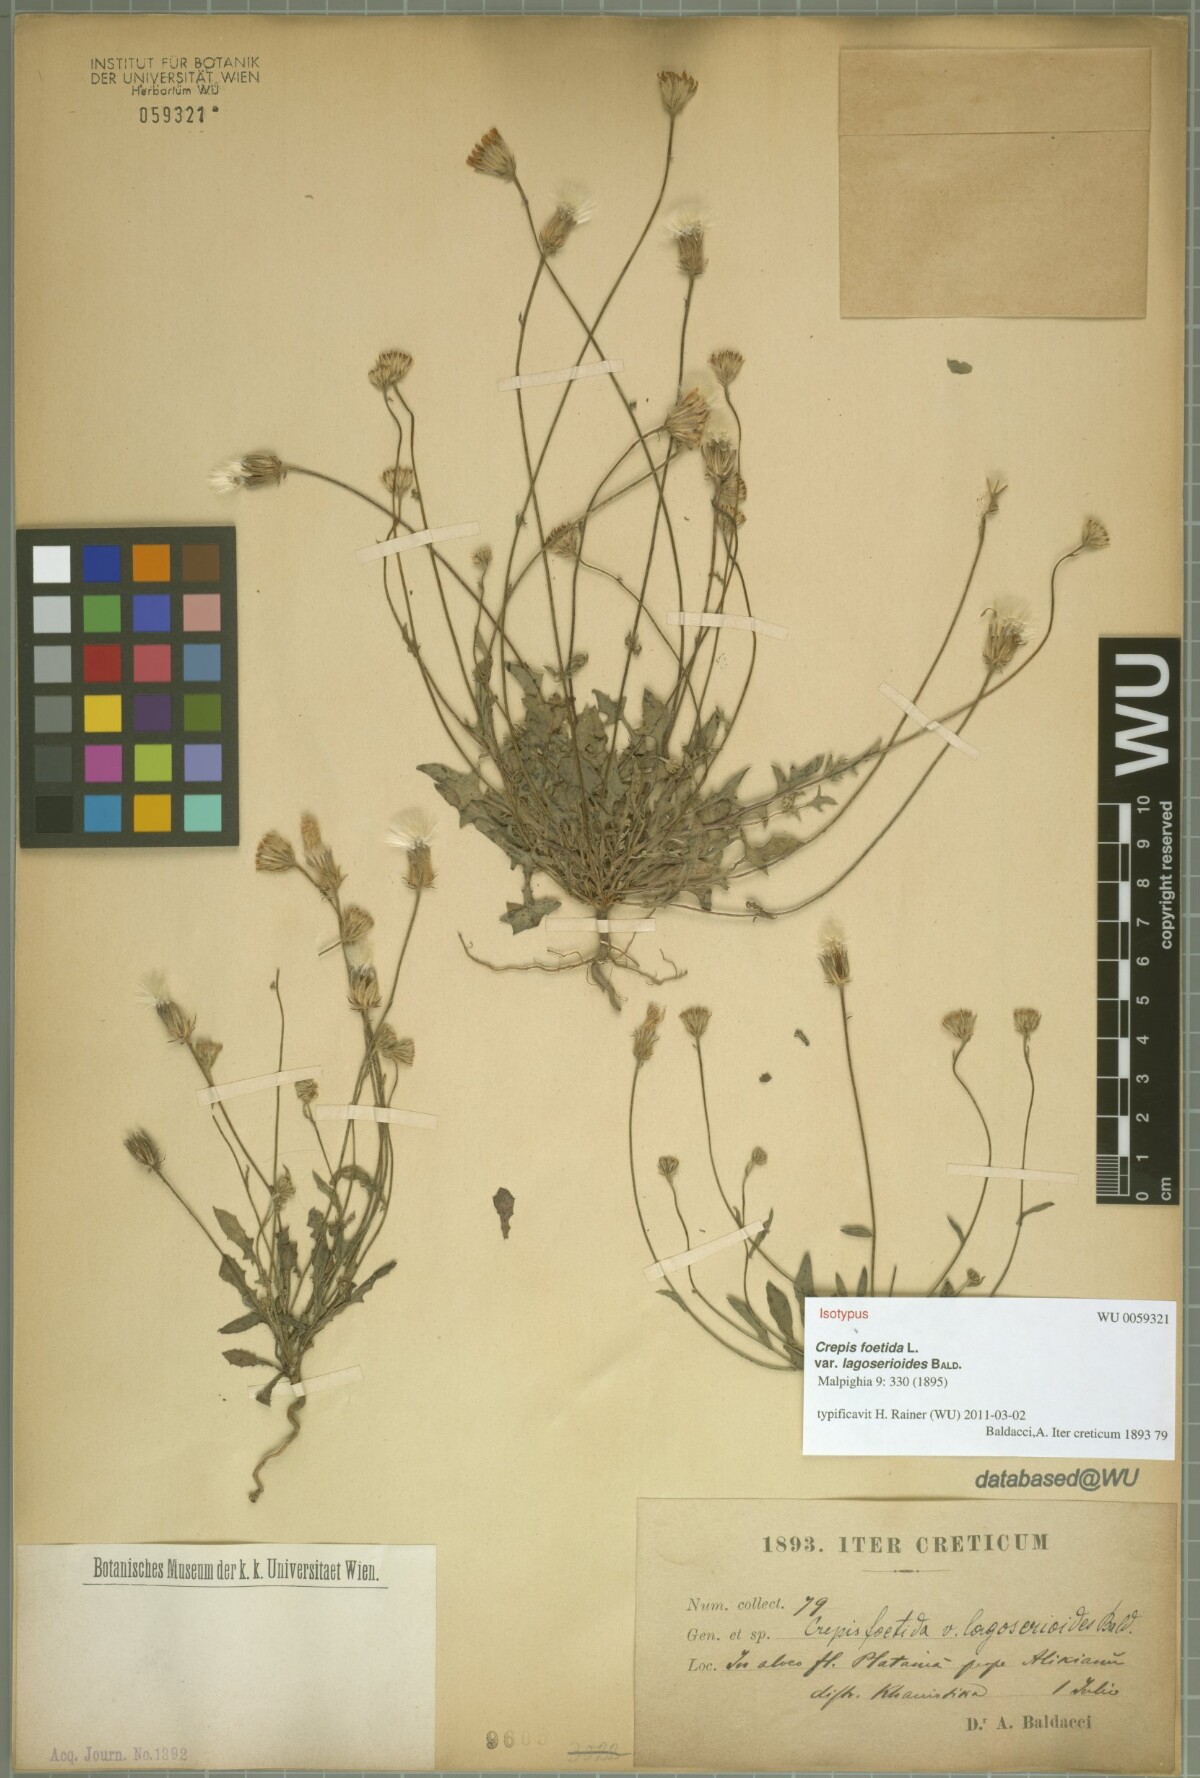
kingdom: Plantae
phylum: Tracheophyta
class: Magnoliopsida
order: Asterales
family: Asteraceae
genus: Crepis
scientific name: Crepis foetida
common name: Stinking hawk's-beard
